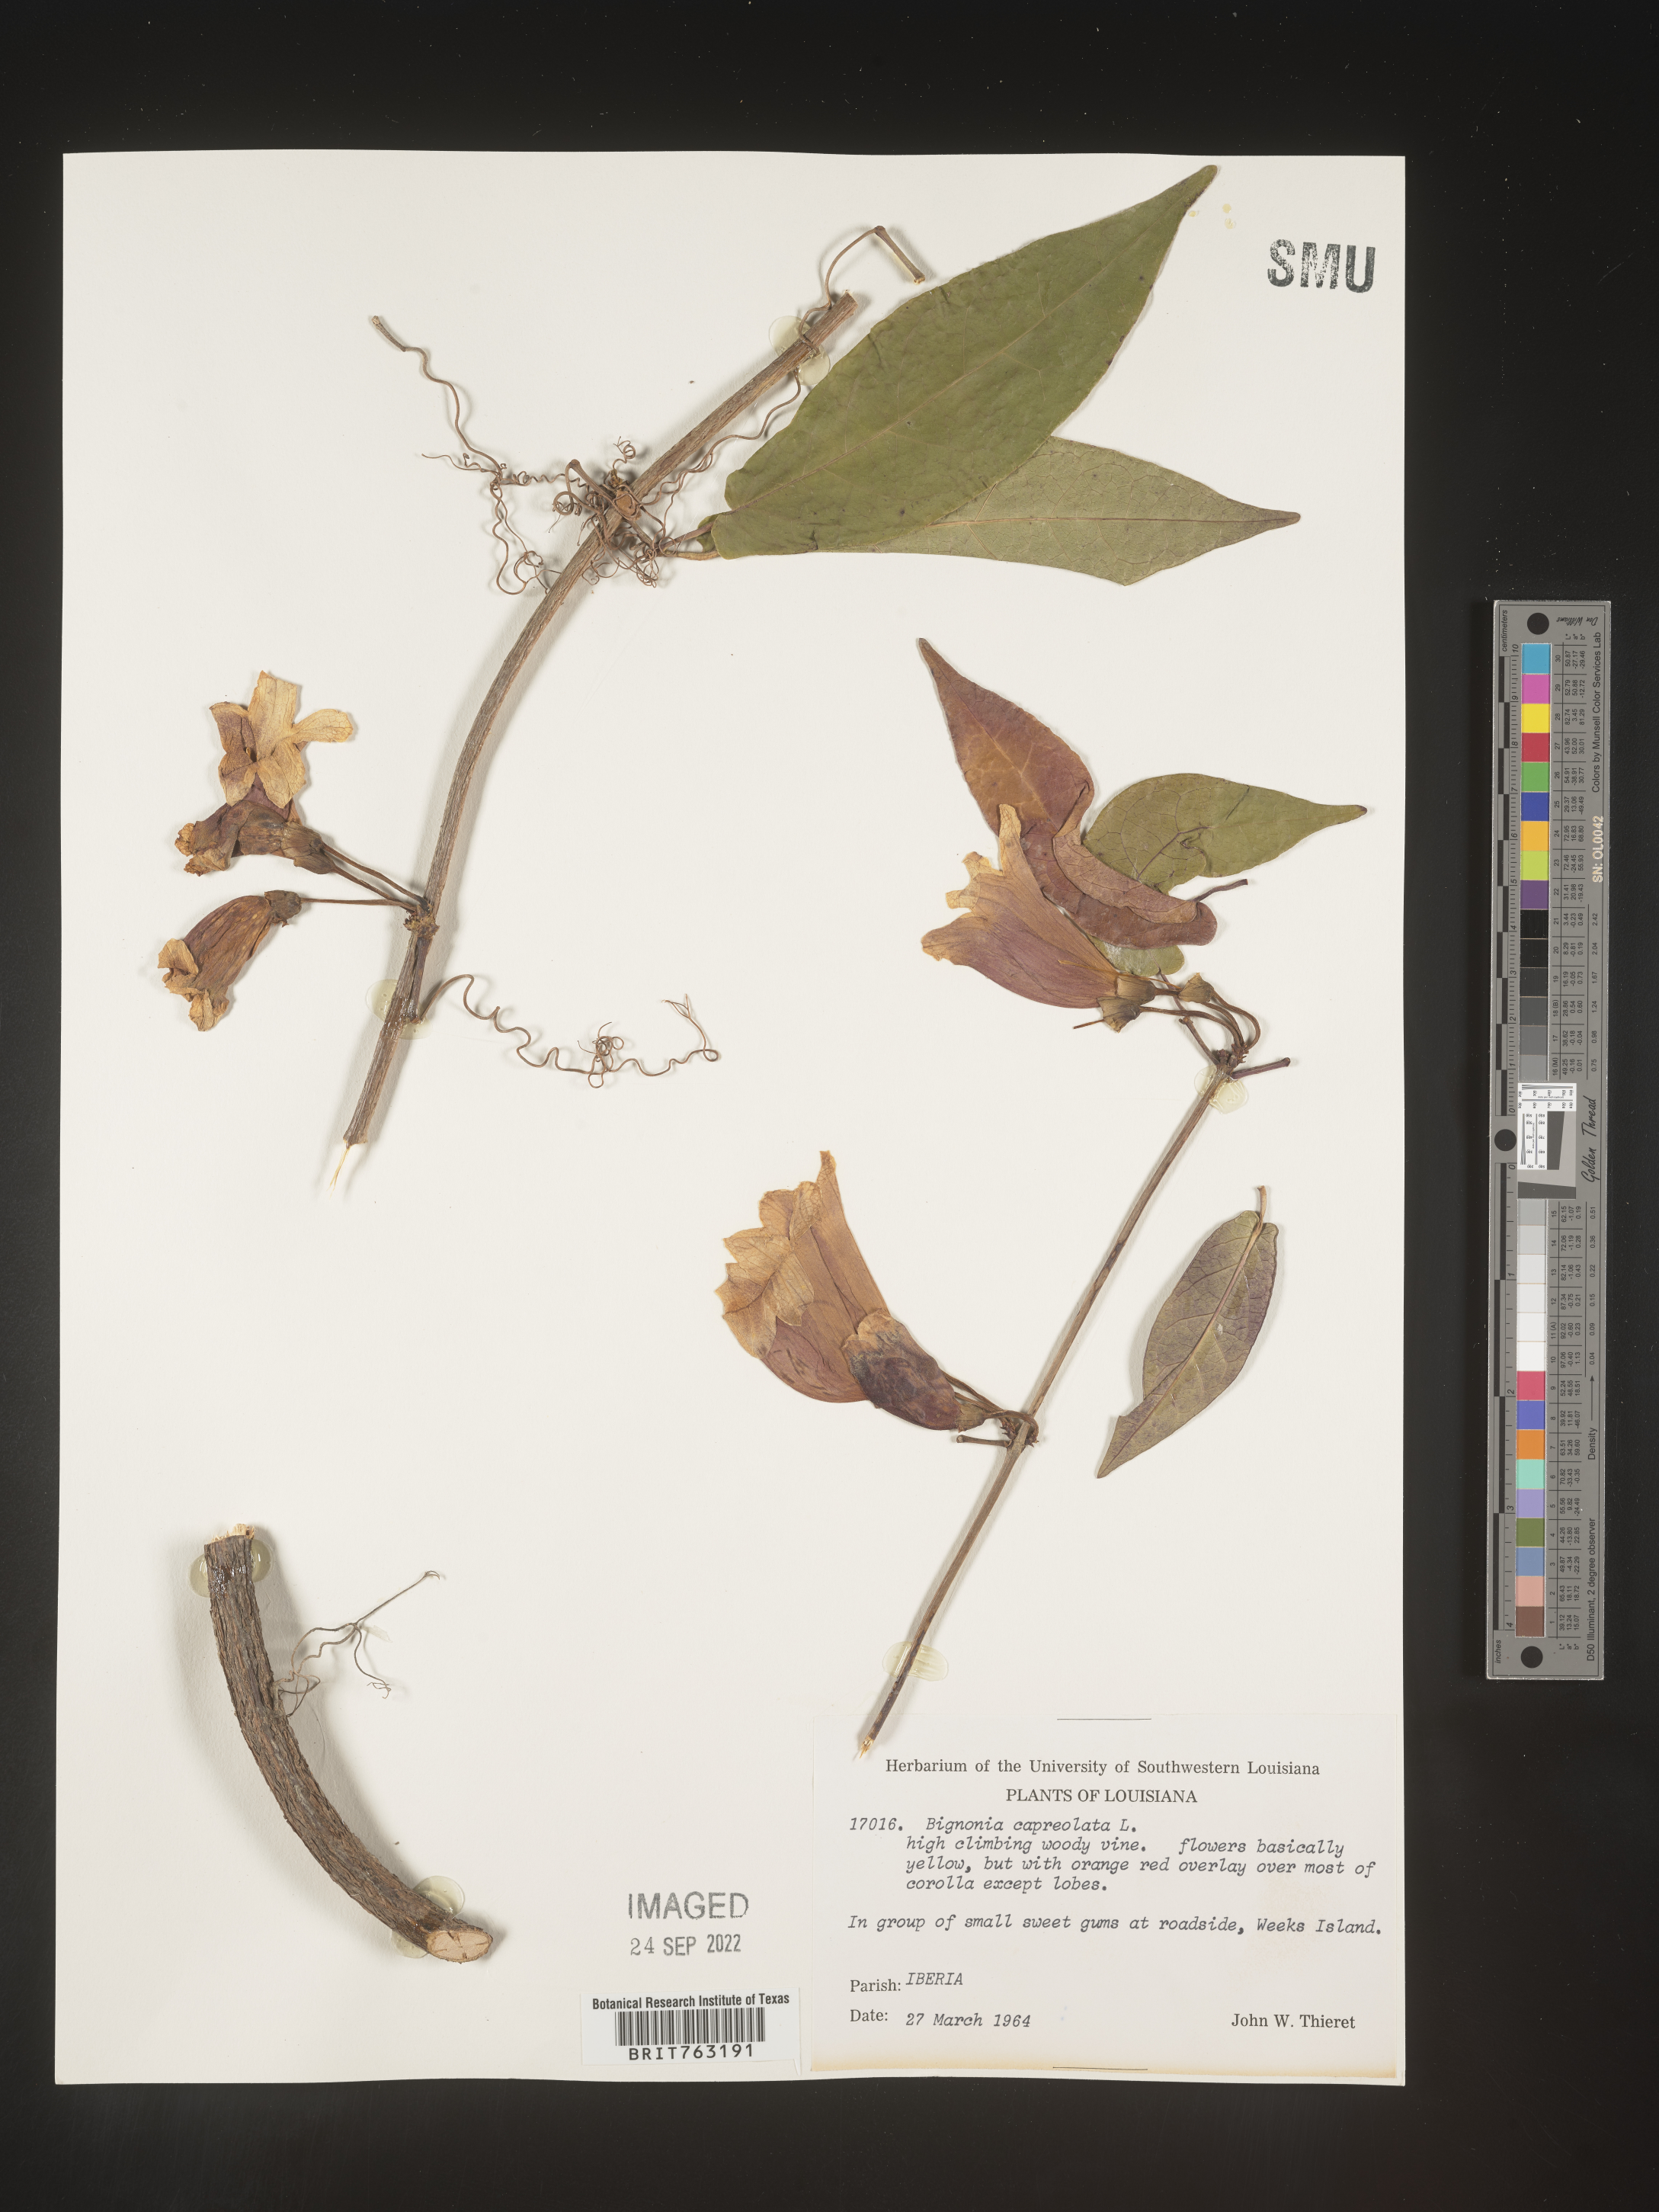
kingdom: Plantae
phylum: Tracheophyta
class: Magnoliopsida
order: Lamiales
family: Bignoniaceae
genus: Bignonia
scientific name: Bignonia capreolata
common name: Crossvine
